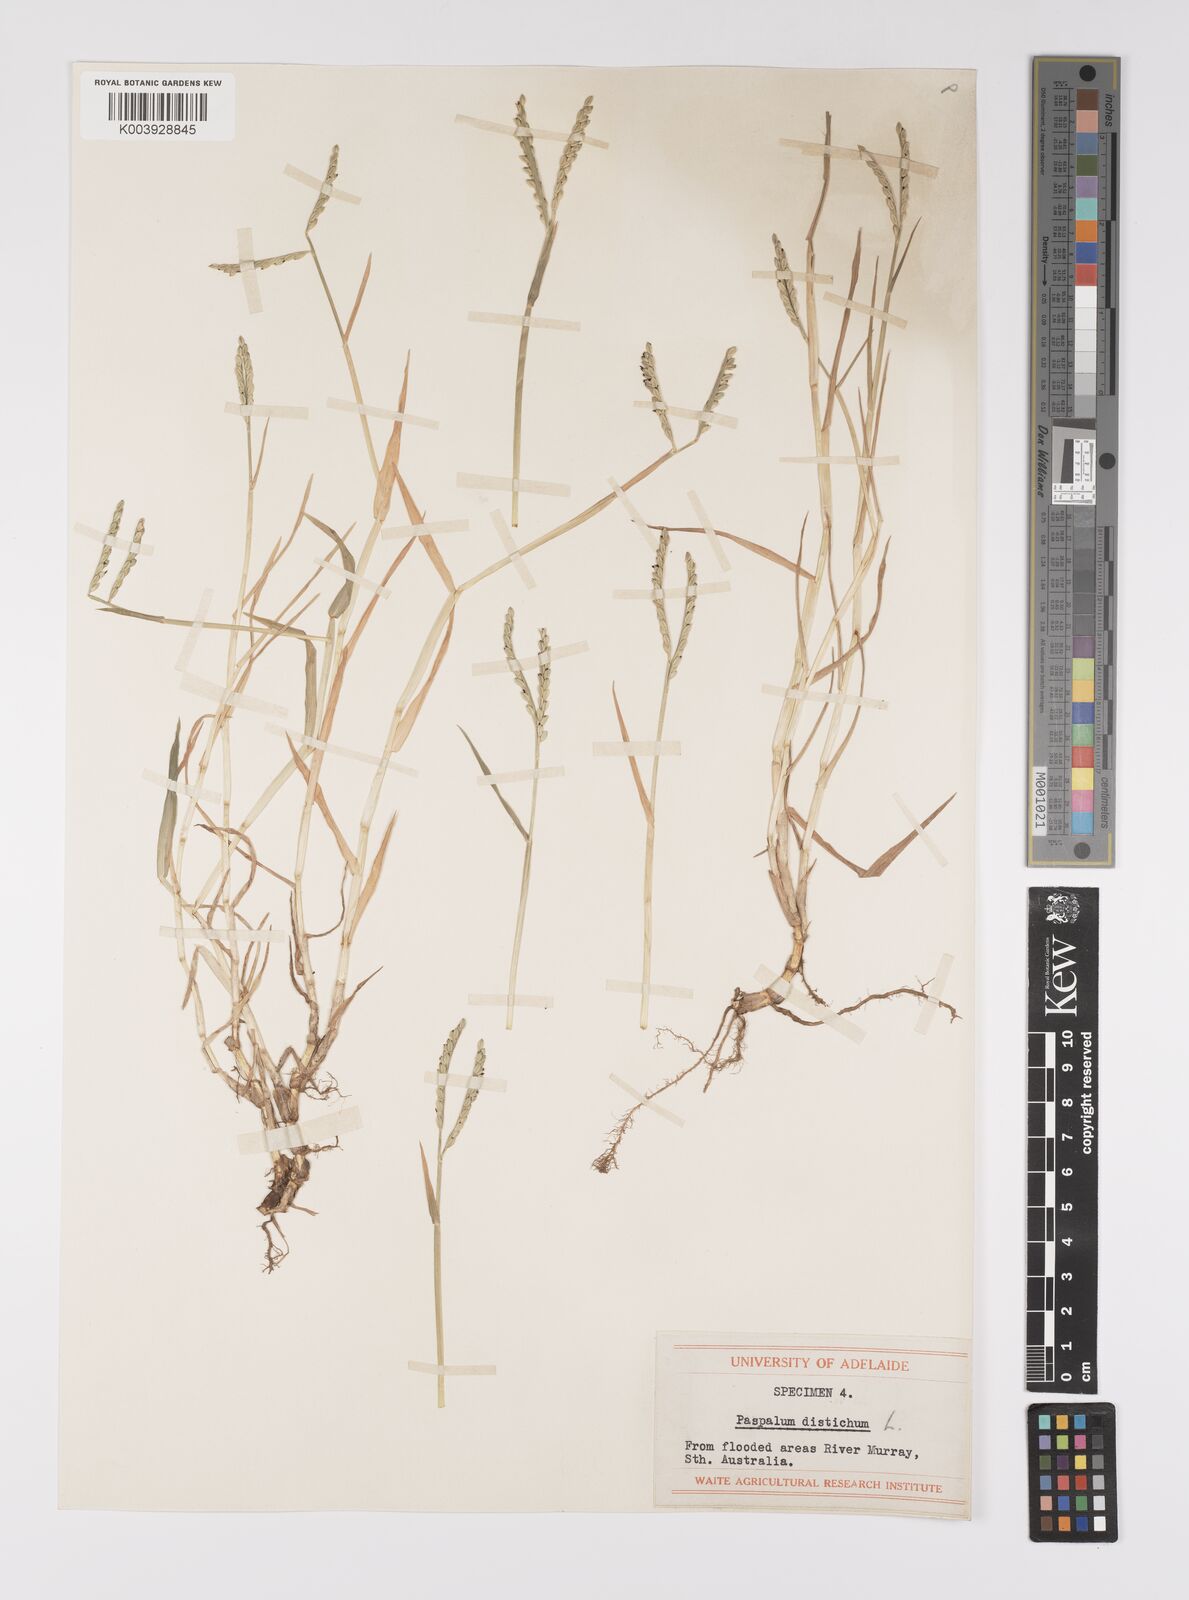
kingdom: Plantae
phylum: Tracheophyta
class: Liliopsida
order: Poales
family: Poaceae
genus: Paspalum
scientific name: Paspalum distichum
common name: Knotgrass
